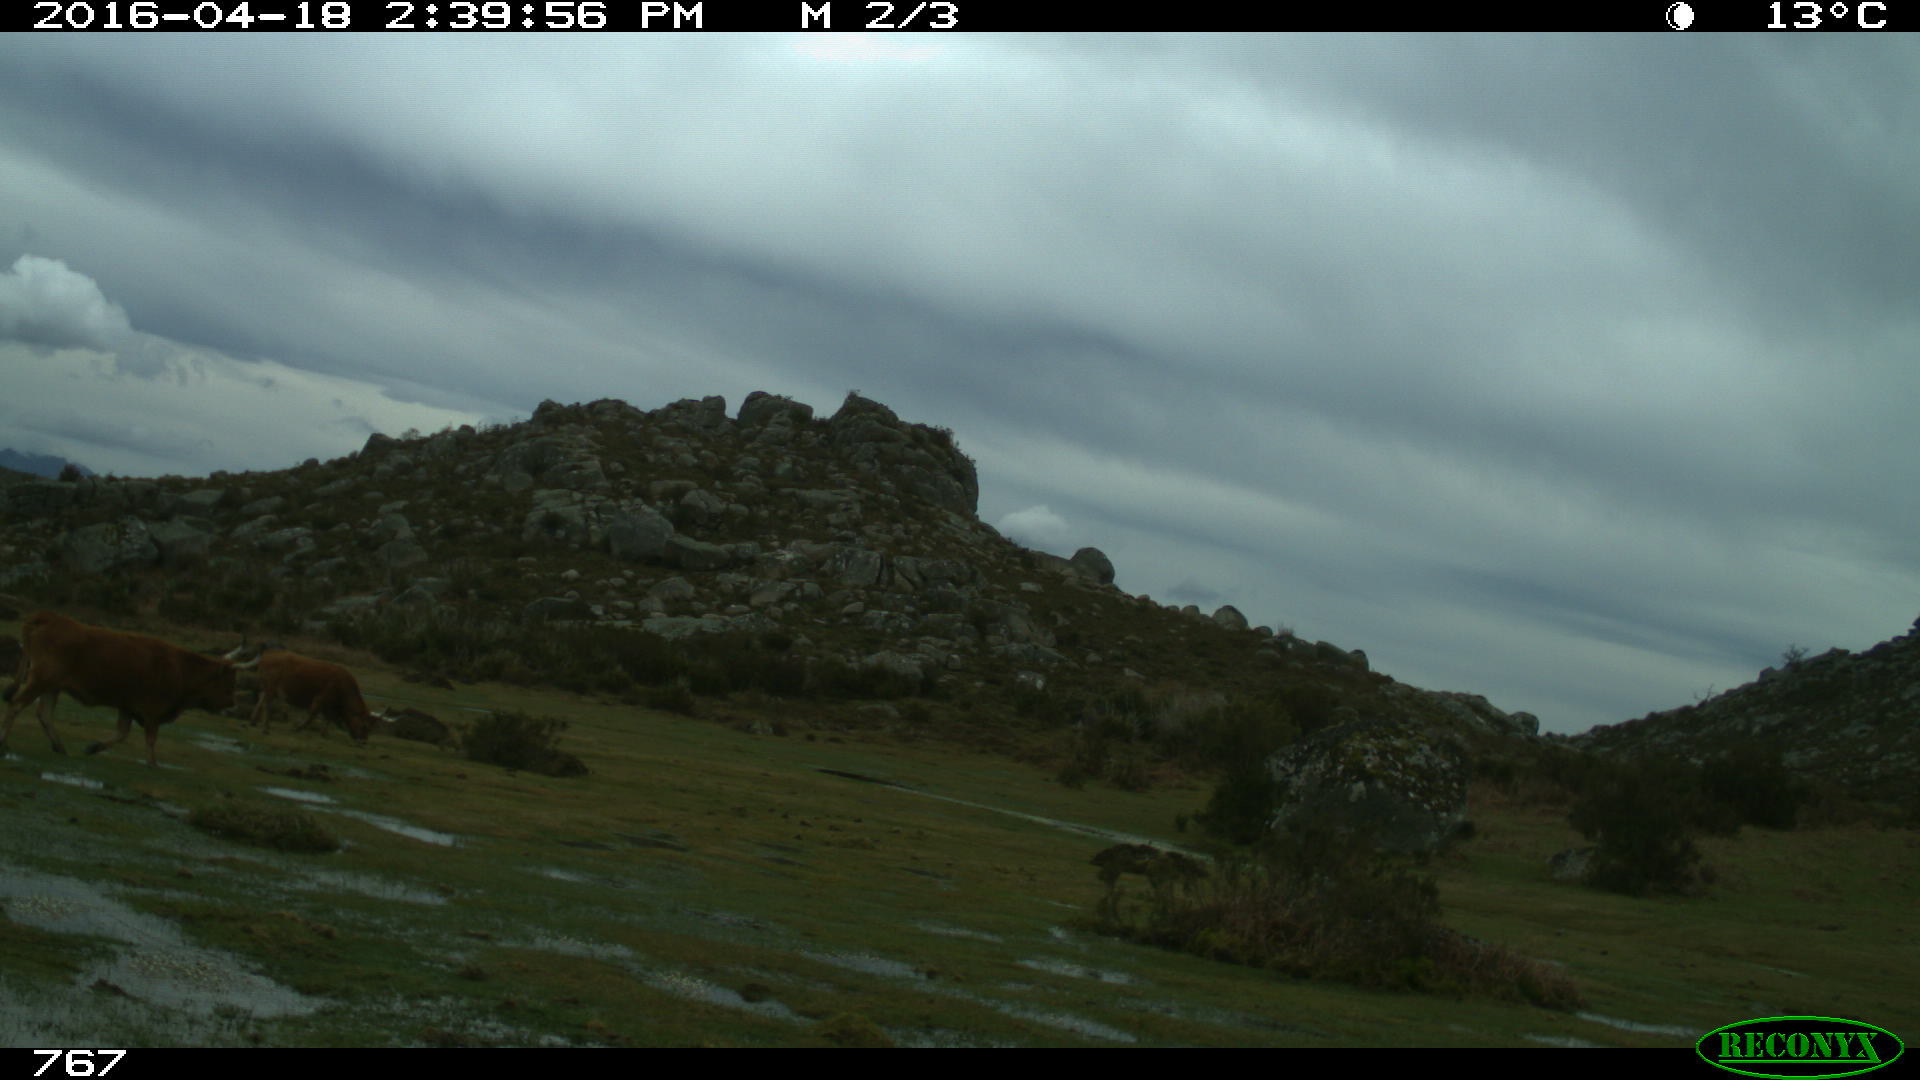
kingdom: Animalia
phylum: Chordata
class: Mammalia
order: Artiodactyla
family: Bovidae
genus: Bos
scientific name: Bos taurus
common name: Domesticated cattle
